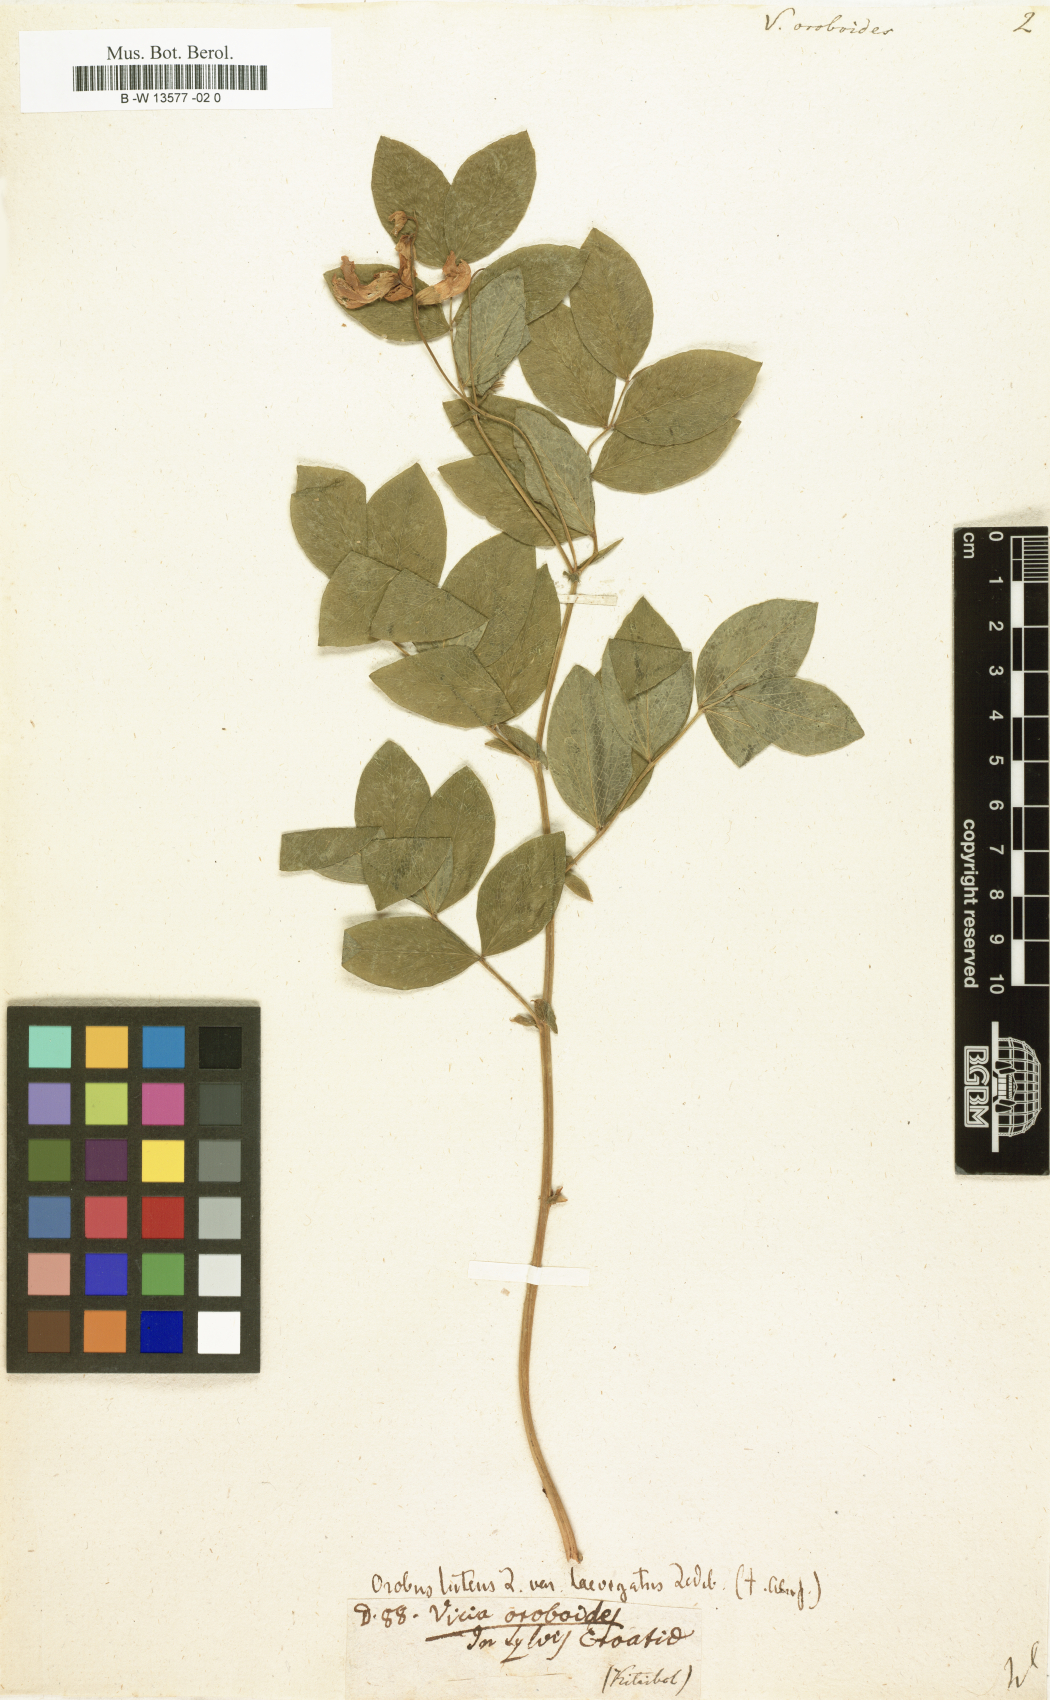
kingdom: Plantae
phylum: Tracheophyta
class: Magnoliopsida
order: Fabales
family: Fabaceae
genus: Vicia
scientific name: Vicia oroboides
